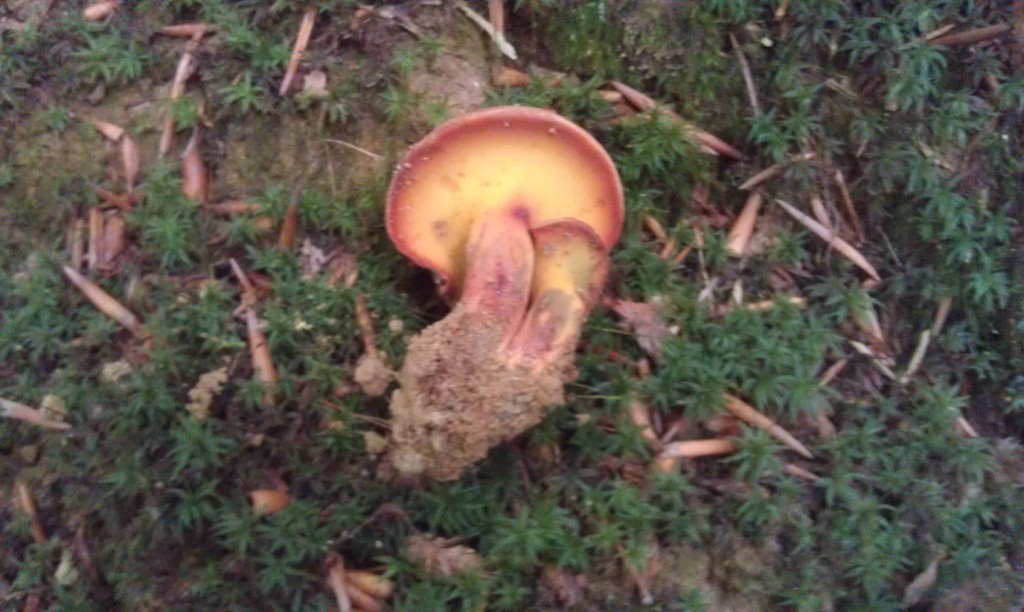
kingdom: Fungi
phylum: Basidiomycota
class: Agaricomycetes
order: Boletales
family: Boletaceae
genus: Buchwaldoboletus
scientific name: Buchwaldoboletus lignicola
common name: stødrørhat
